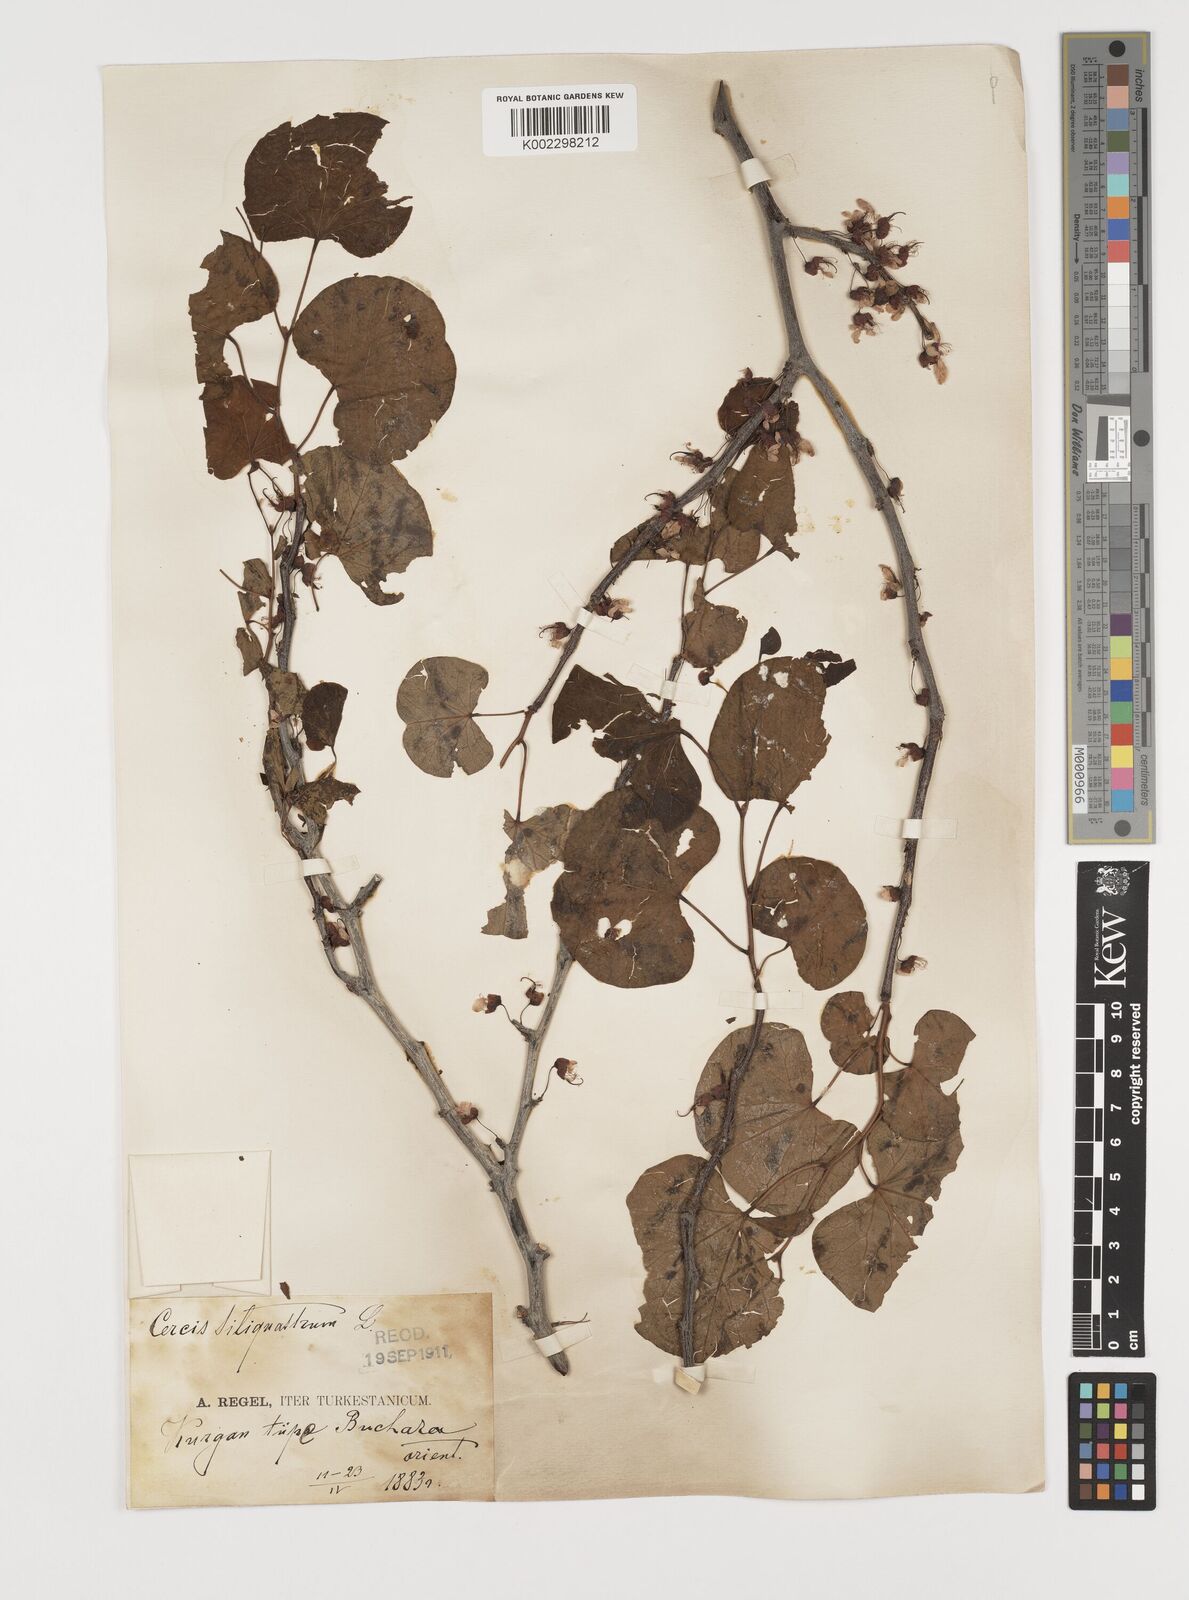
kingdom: Plantae
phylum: Tracheophyta
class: Magnoliopsida
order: Fabales
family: Fabaceae
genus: Cercis
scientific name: Cercis
